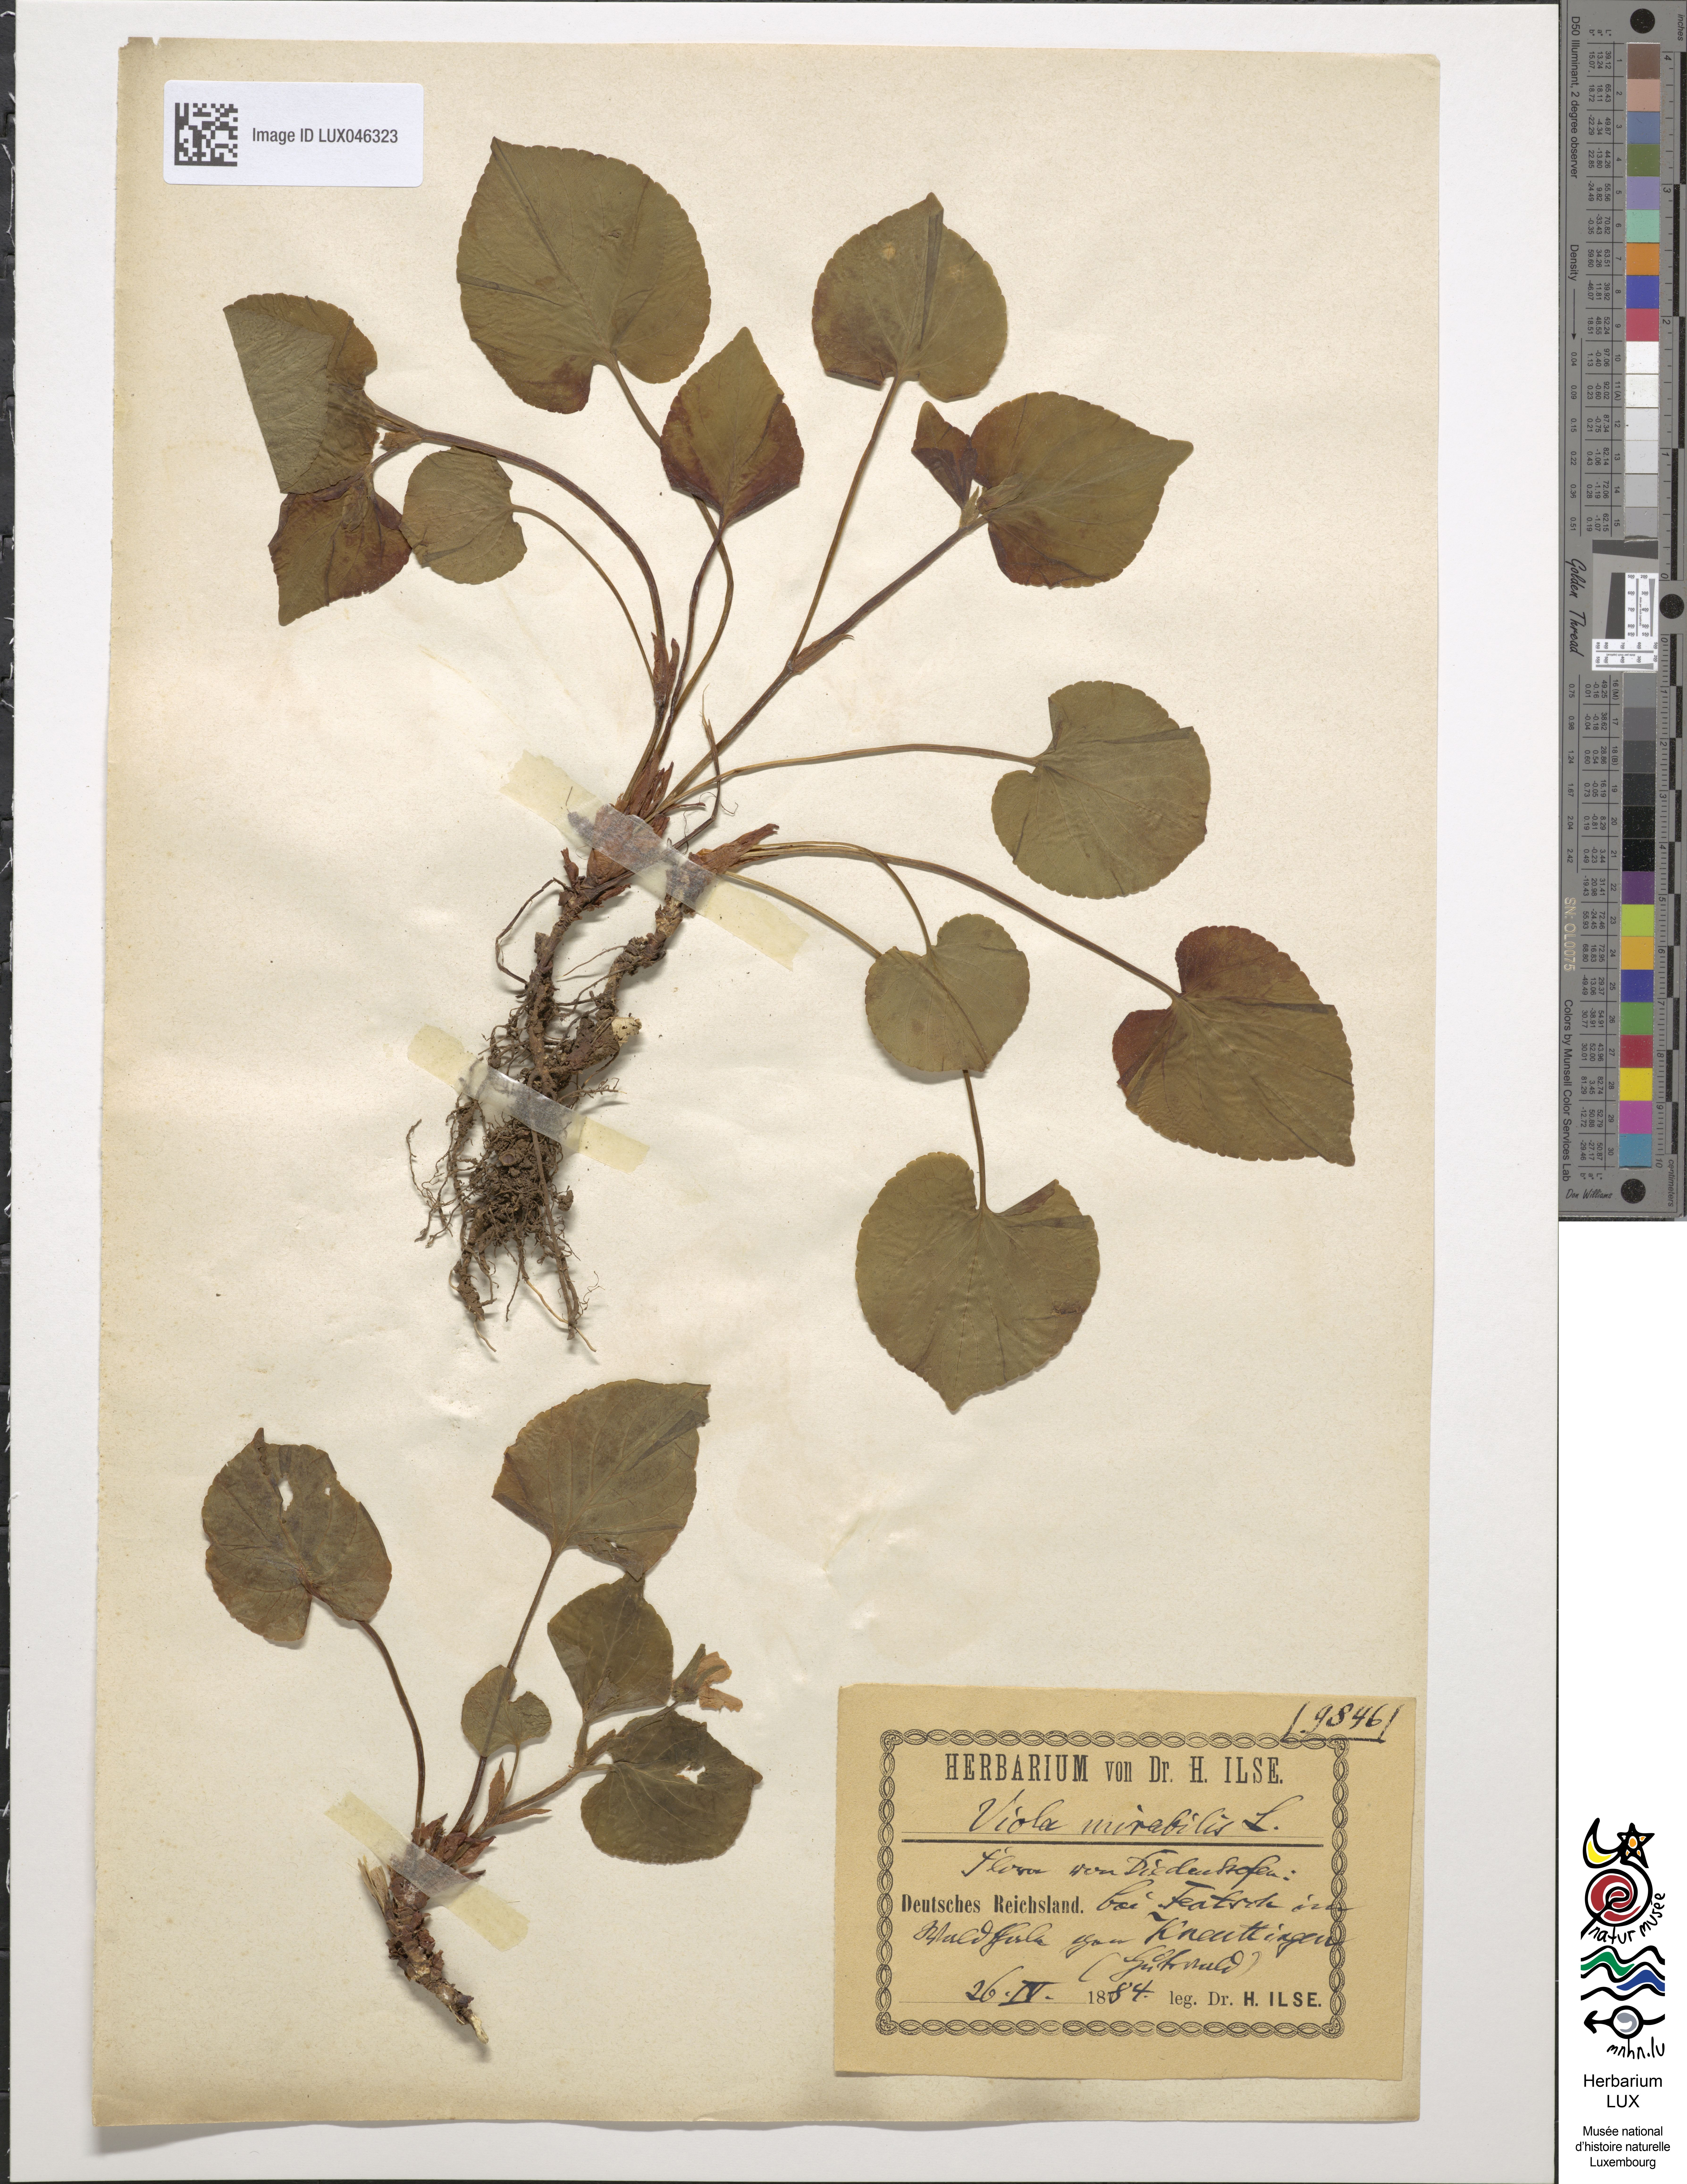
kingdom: Plantae
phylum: Tracheophyta
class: Magnoliopsida
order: Malpighiales
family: Violaceae
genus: Viola
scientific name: Viola mirabilis
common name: Wonder violet
